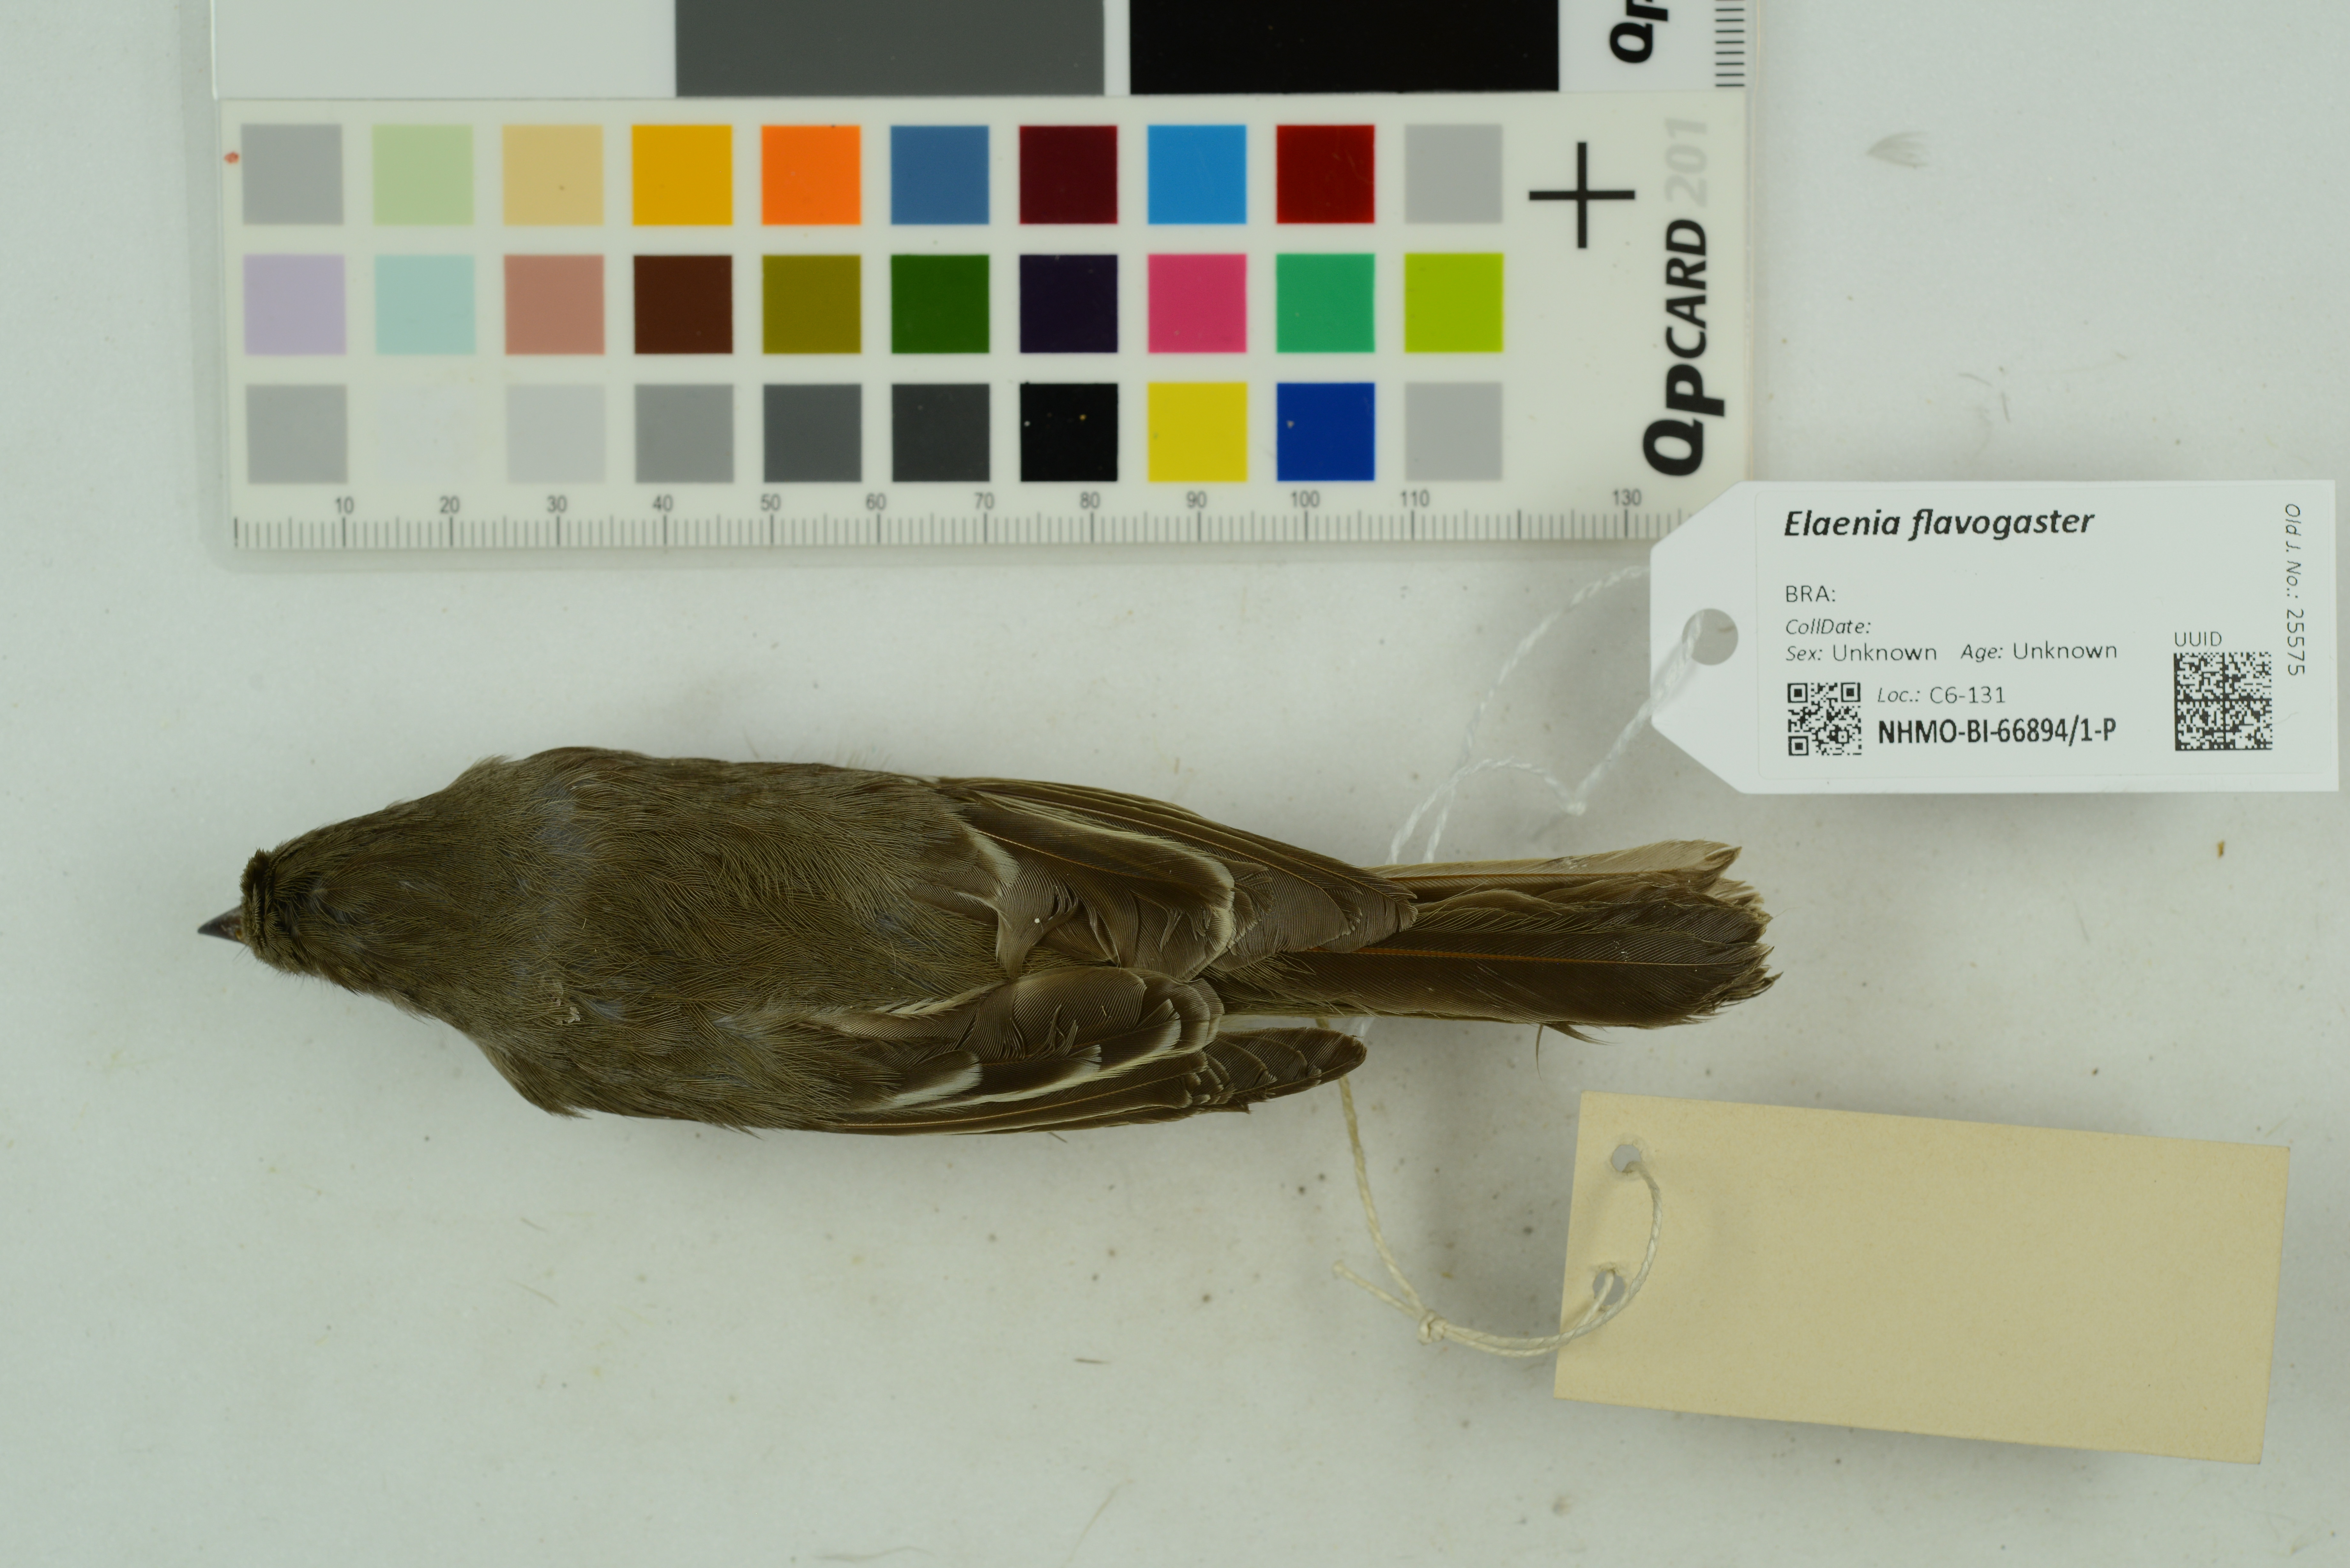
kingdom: Animalia
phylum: Chordata
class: Aves
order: Passeriformes
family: Tyrannidae
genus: Elaenia
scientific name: Elaenia flavogaster
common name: Yellow-bellied elaenia
